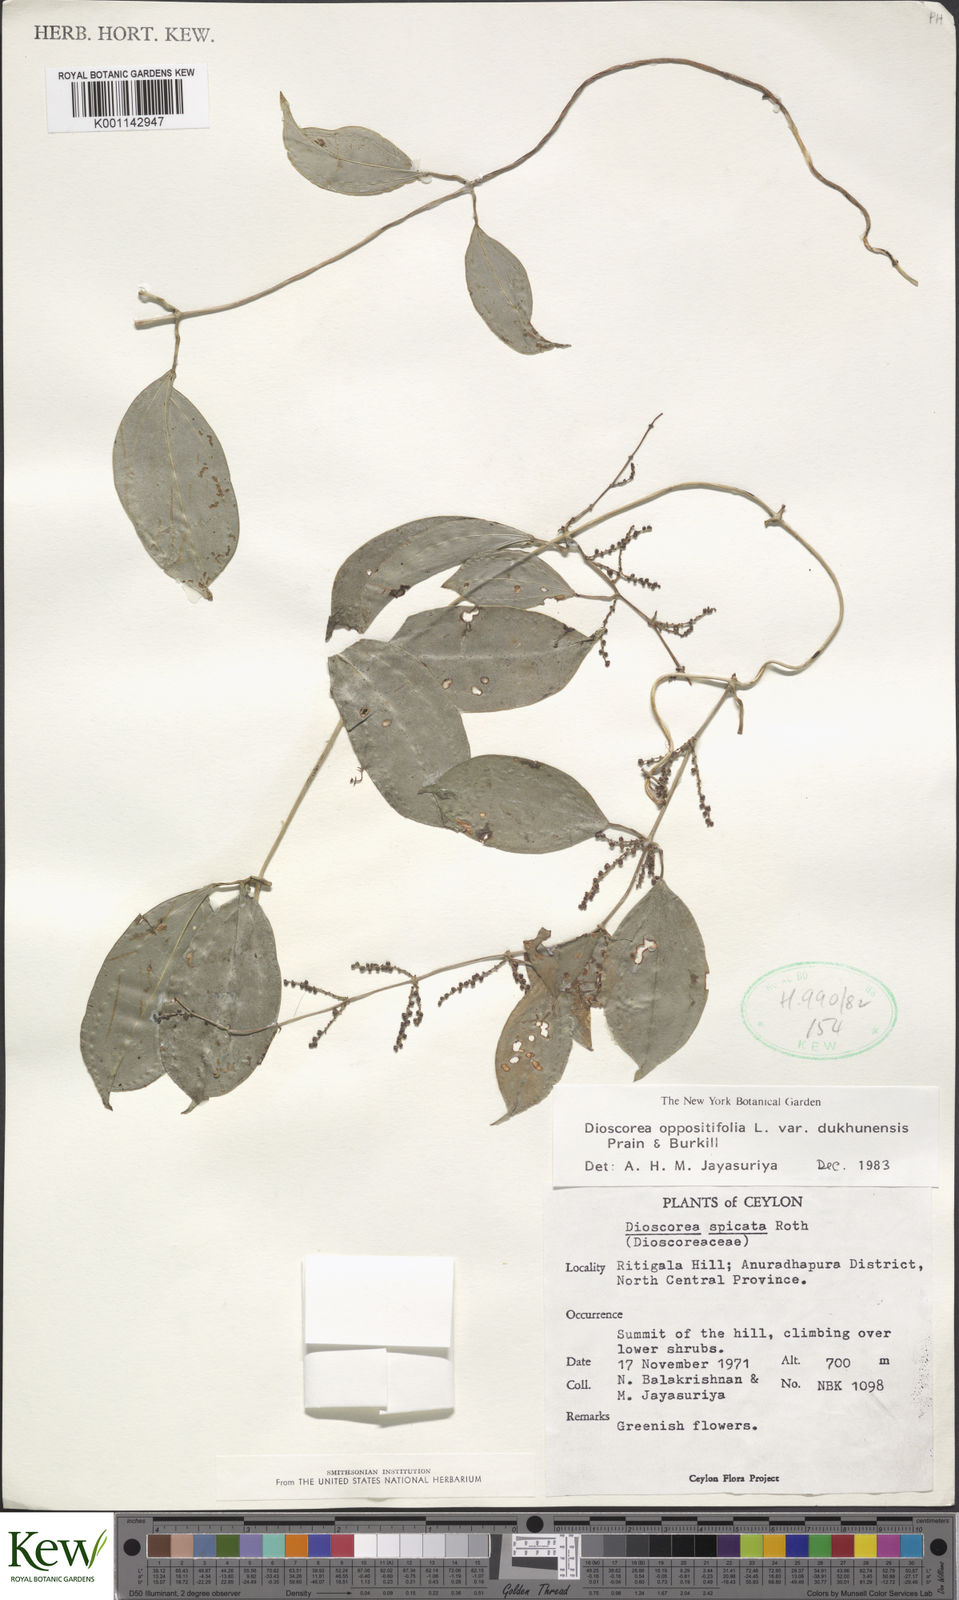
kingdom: Plantae
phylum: Tracheophyta
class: Liliopsida
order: Dioscoreales
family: Dioscoreaceae
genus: Dioscorea
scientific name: Dioscorea oppositifolia
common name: Chinese yam
